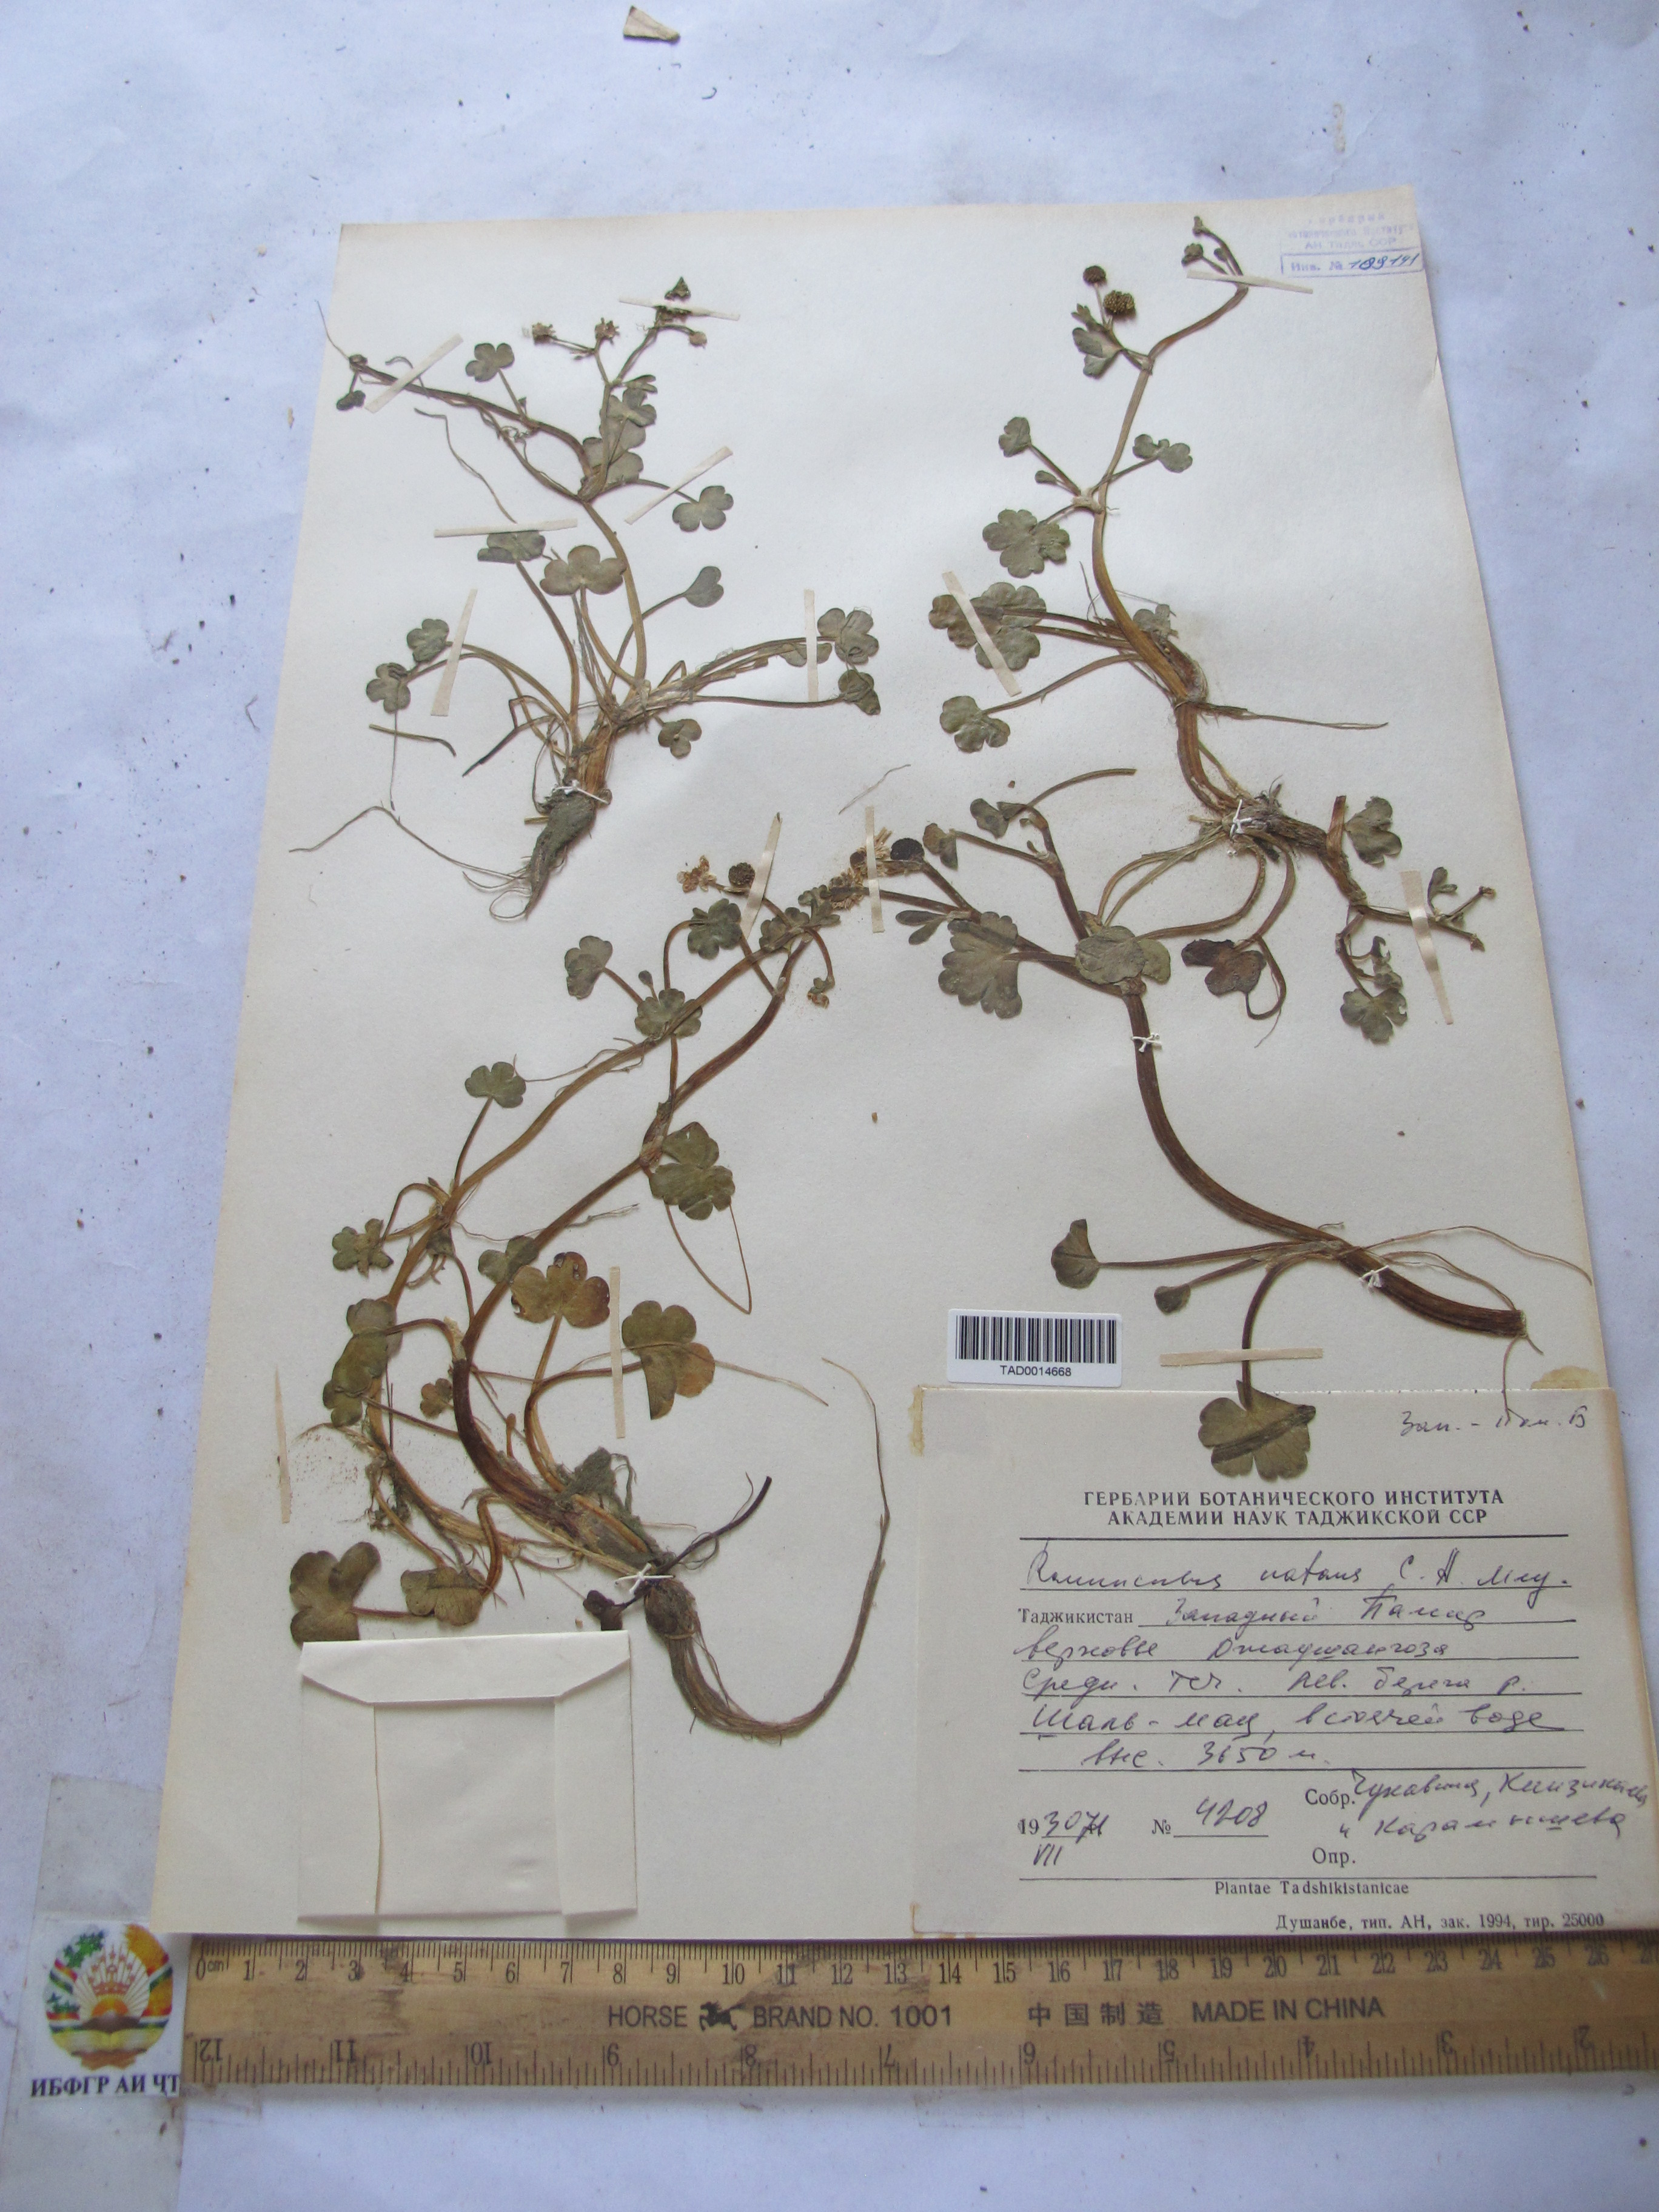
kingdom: Plantae
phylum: Tracheophyta
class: Magnoliopsida
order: Ranunculales
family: Ranunculaceae
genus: Ranunculus
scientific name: Ranunculus natans
